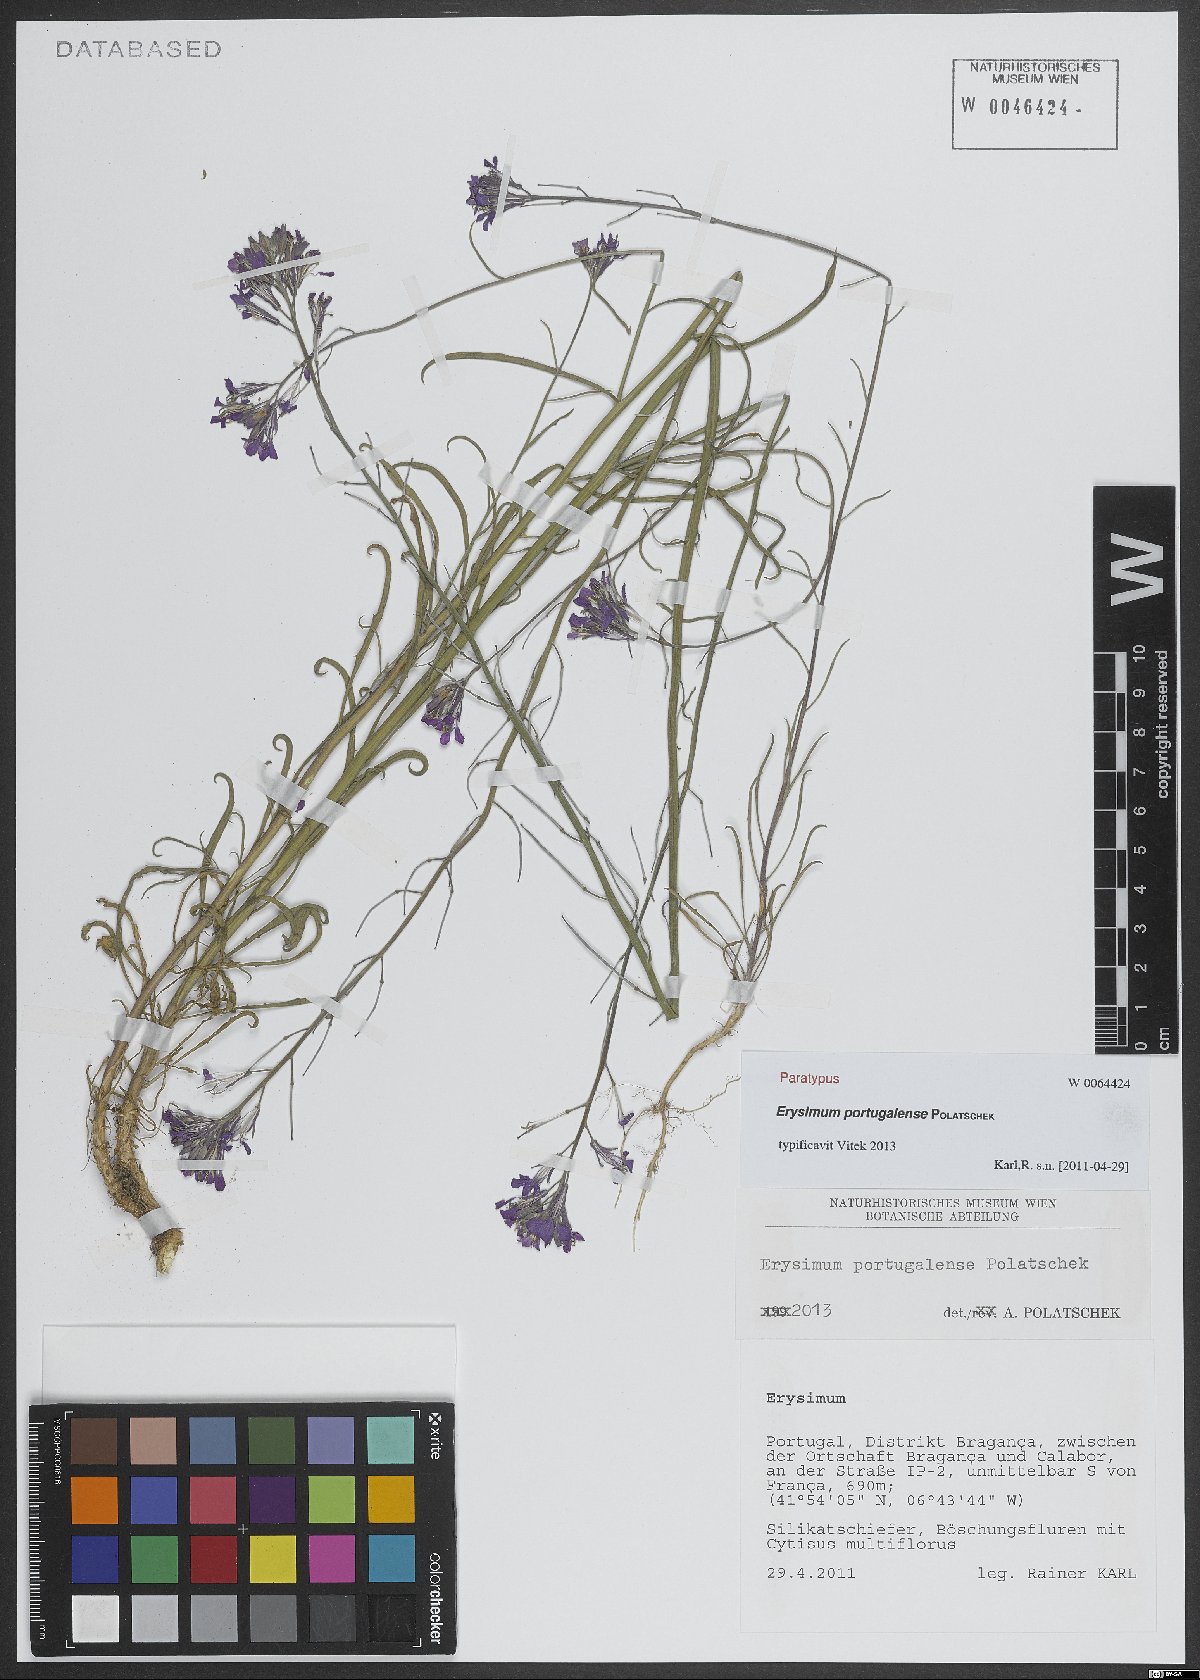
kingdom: Plantae
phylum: Tracheophyta
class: Magnoliopsida
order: Brassicales
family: Brassicaceae
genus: Erysimum
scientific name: Erysimum portugalense
